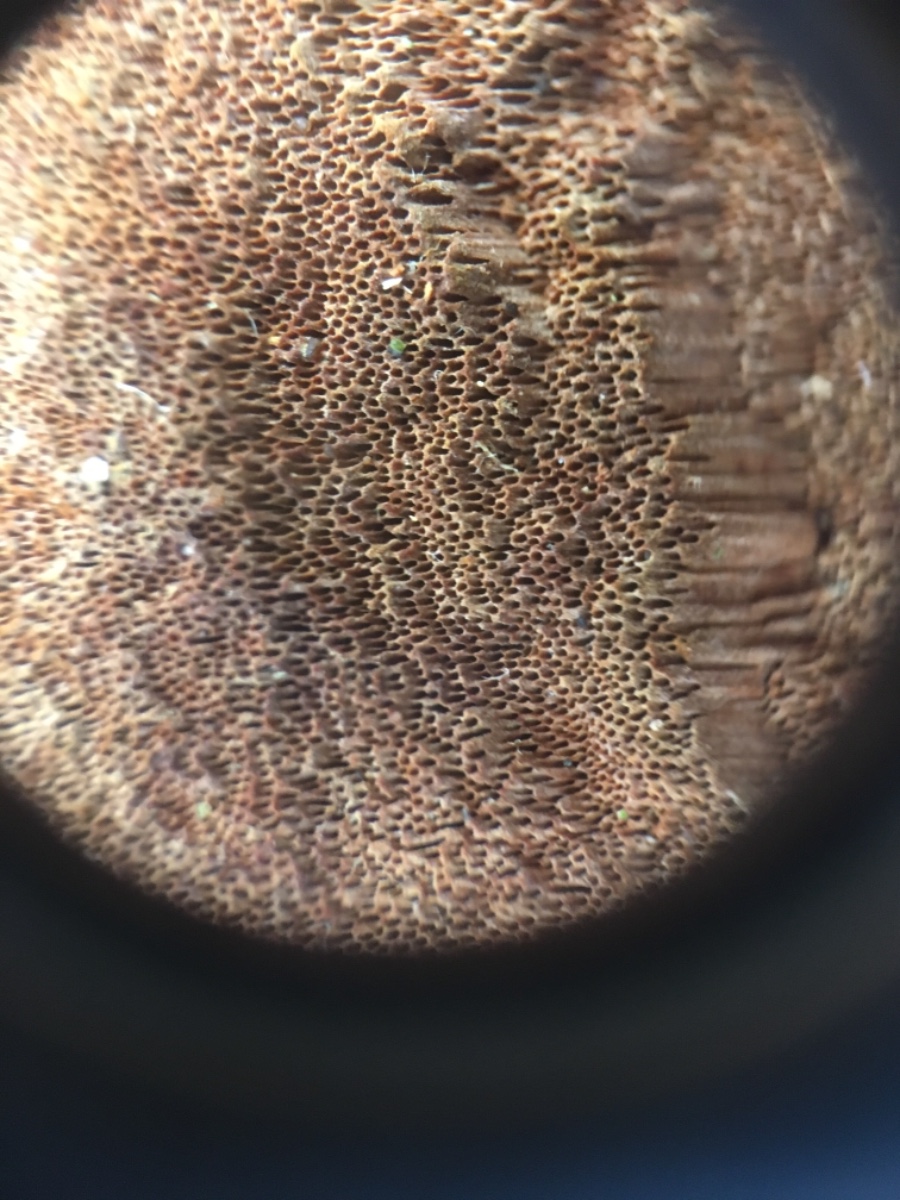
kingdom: Fungi
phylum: Basidiomycota
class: Agaricomycetes
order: Hymenochaetales
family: Hymenochaetaceae
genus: Fuscoporia
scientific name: Fuscoporia
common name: Ildporesvamp
